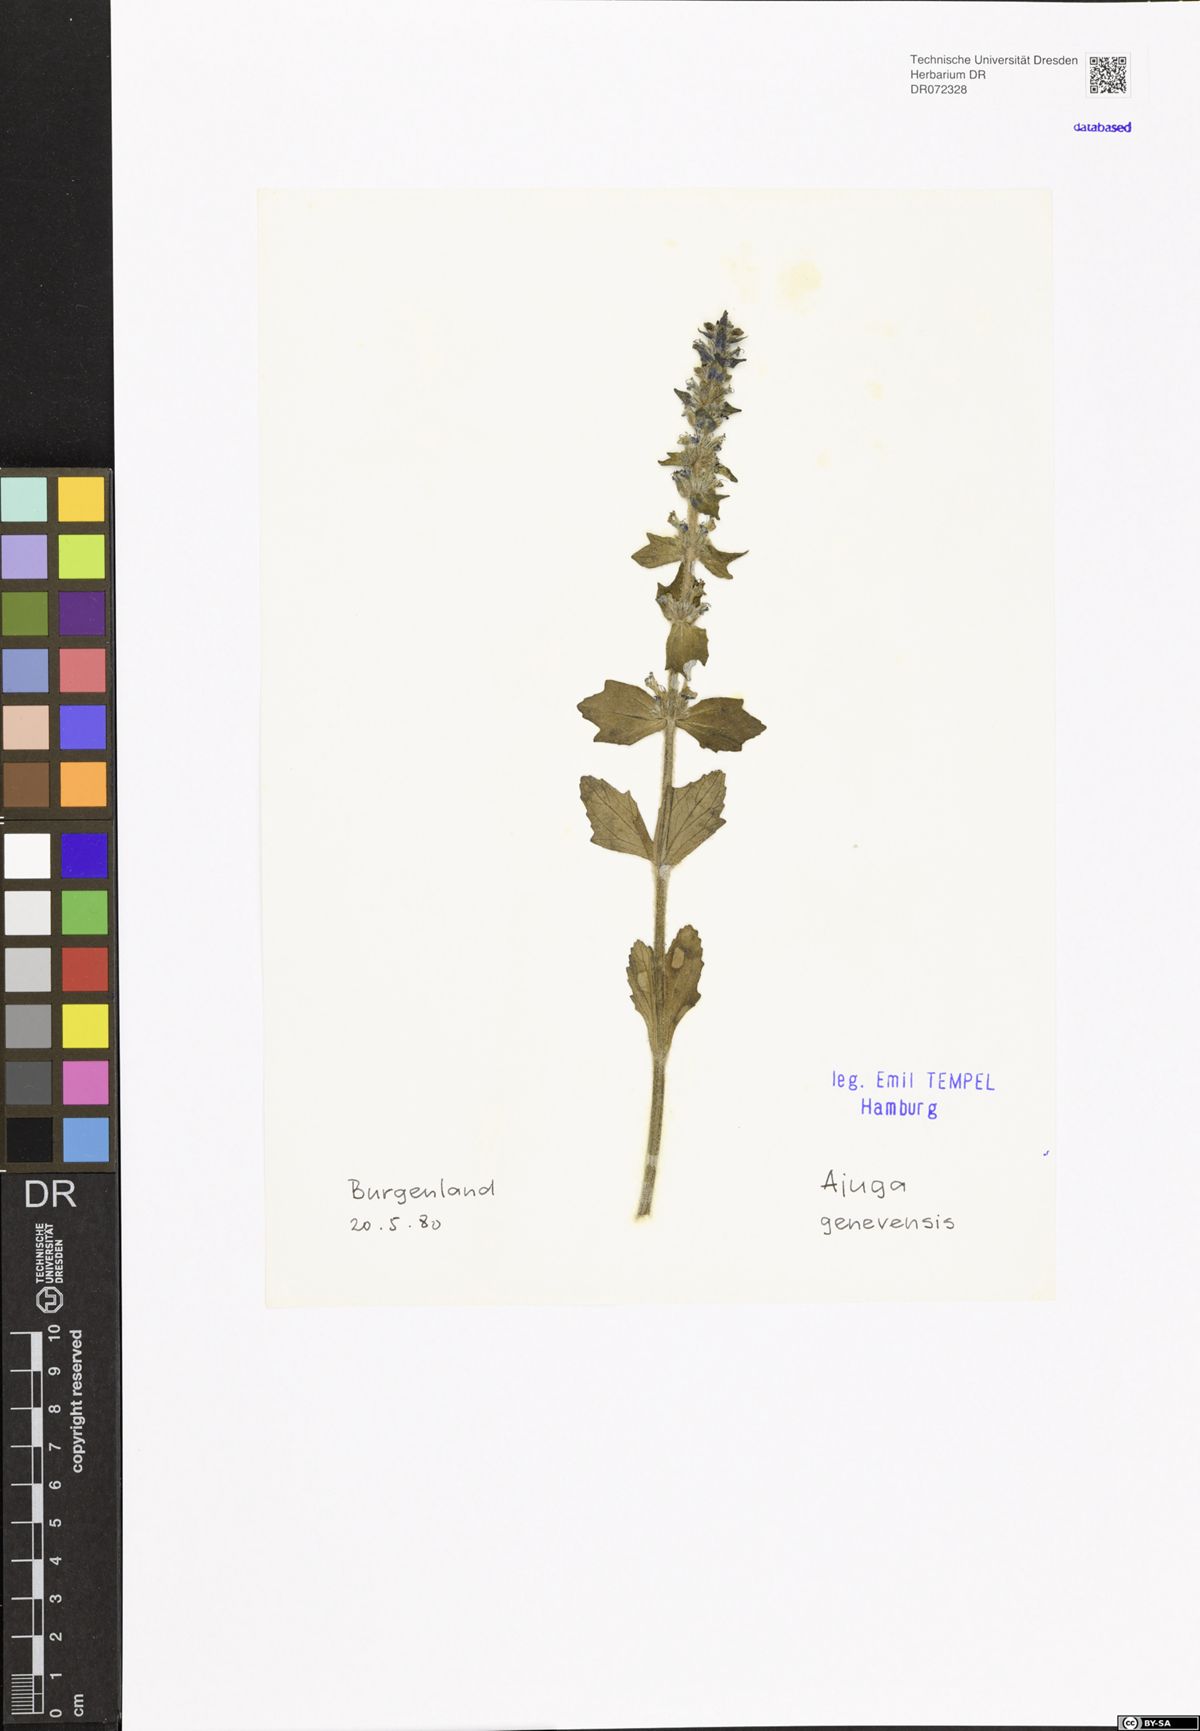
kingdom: Plantae
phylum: Tracheophyta
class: Magnoliopsida
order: Lamiales
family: Lamiaceae
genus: Ajuga
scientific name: Ajuga genevensis
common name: Blue bugle
